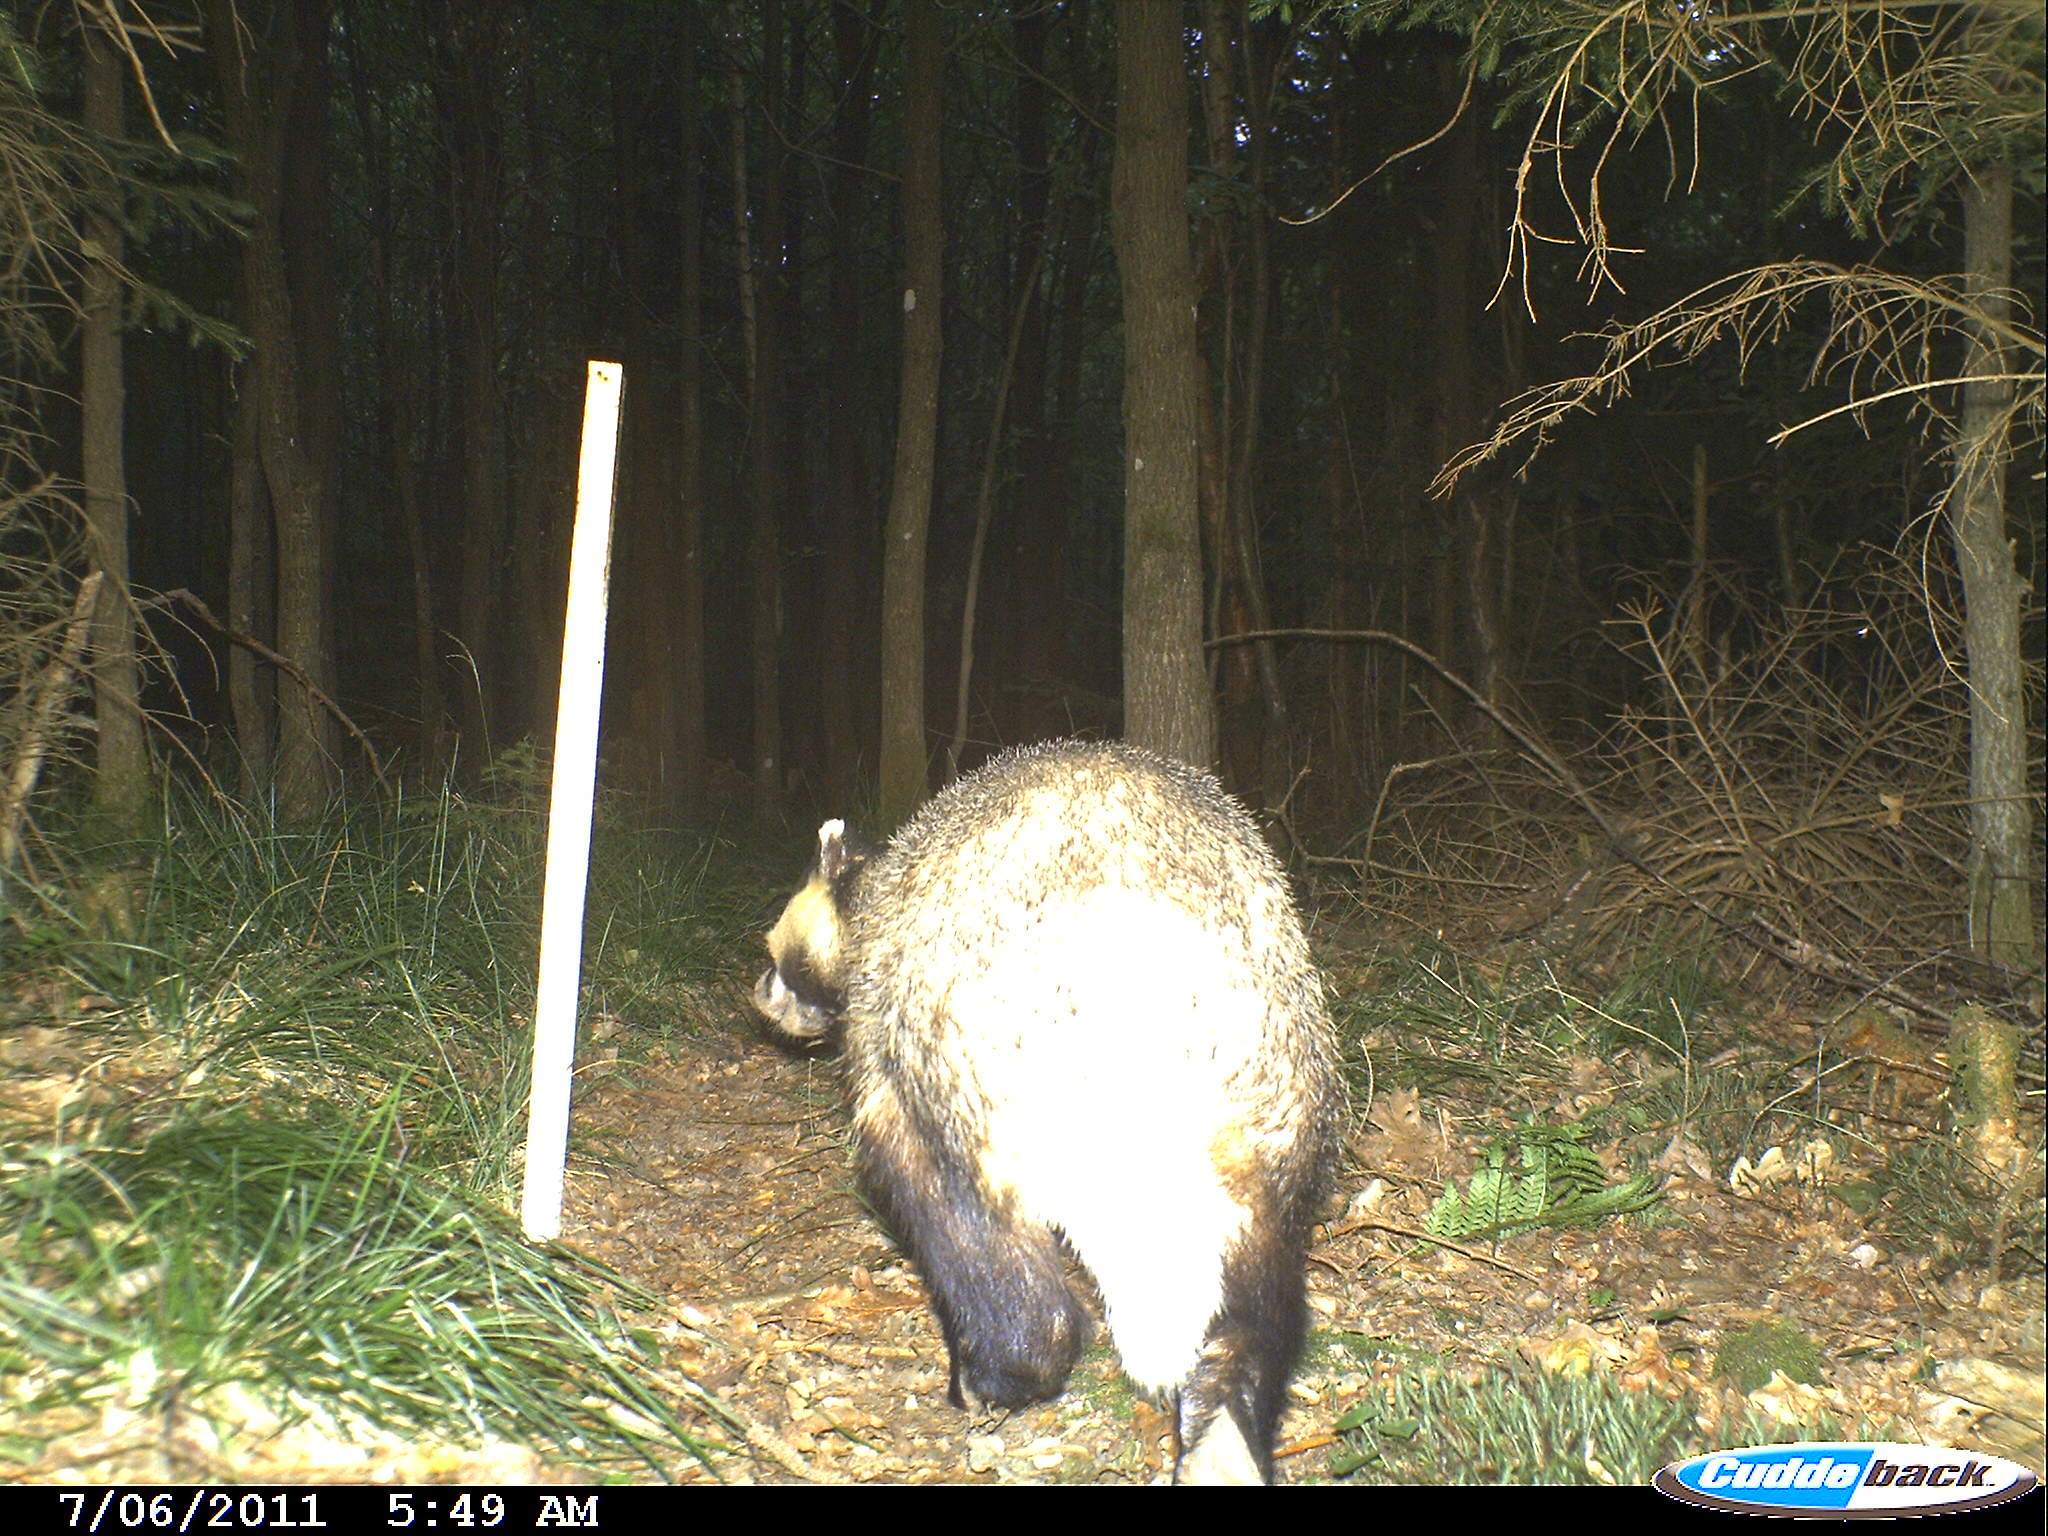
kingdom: Animalia
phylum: Chordata
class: Mammalia
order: Carnivora
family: Mustelidae
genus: Meles
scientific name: Meles meles
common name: Eurasian badger
